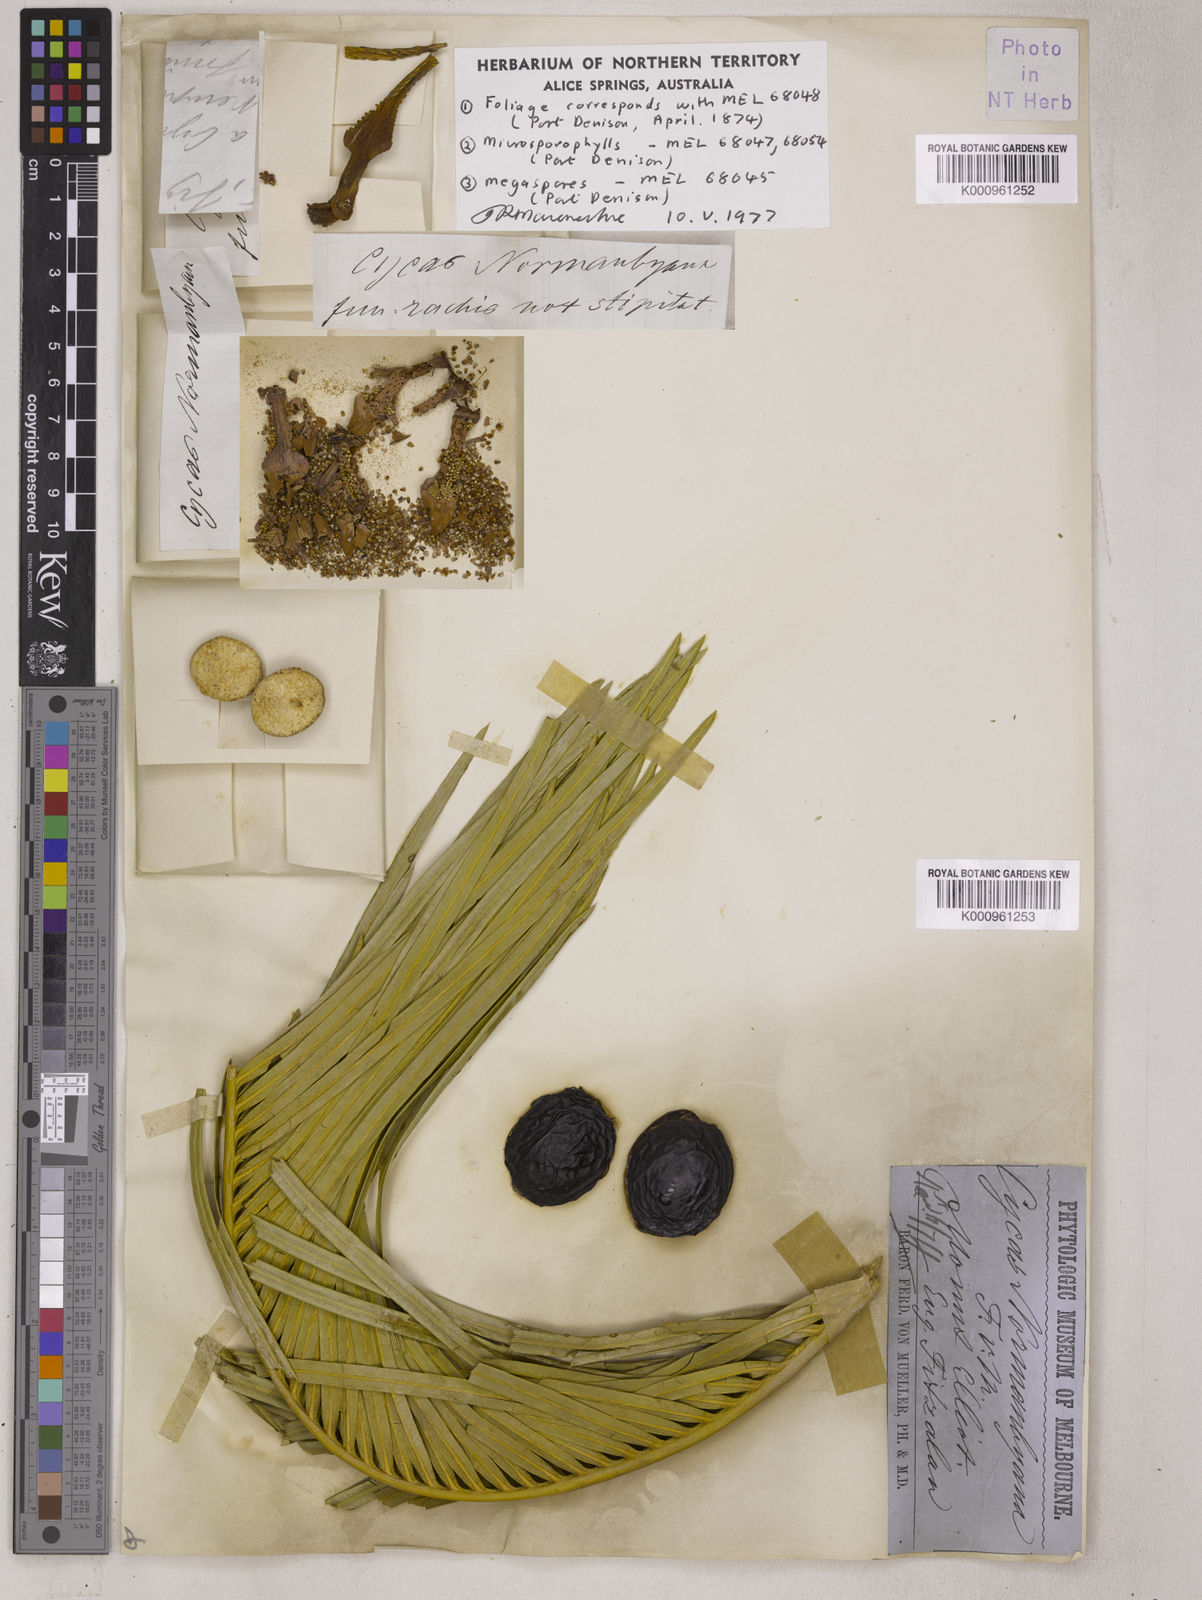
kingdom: Plantae
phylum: Tracheophyta
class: Cycadopsida
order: Cycadales
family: Cycadaceae
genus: Cycas
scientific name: Cycas media
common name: Queensland cycas
